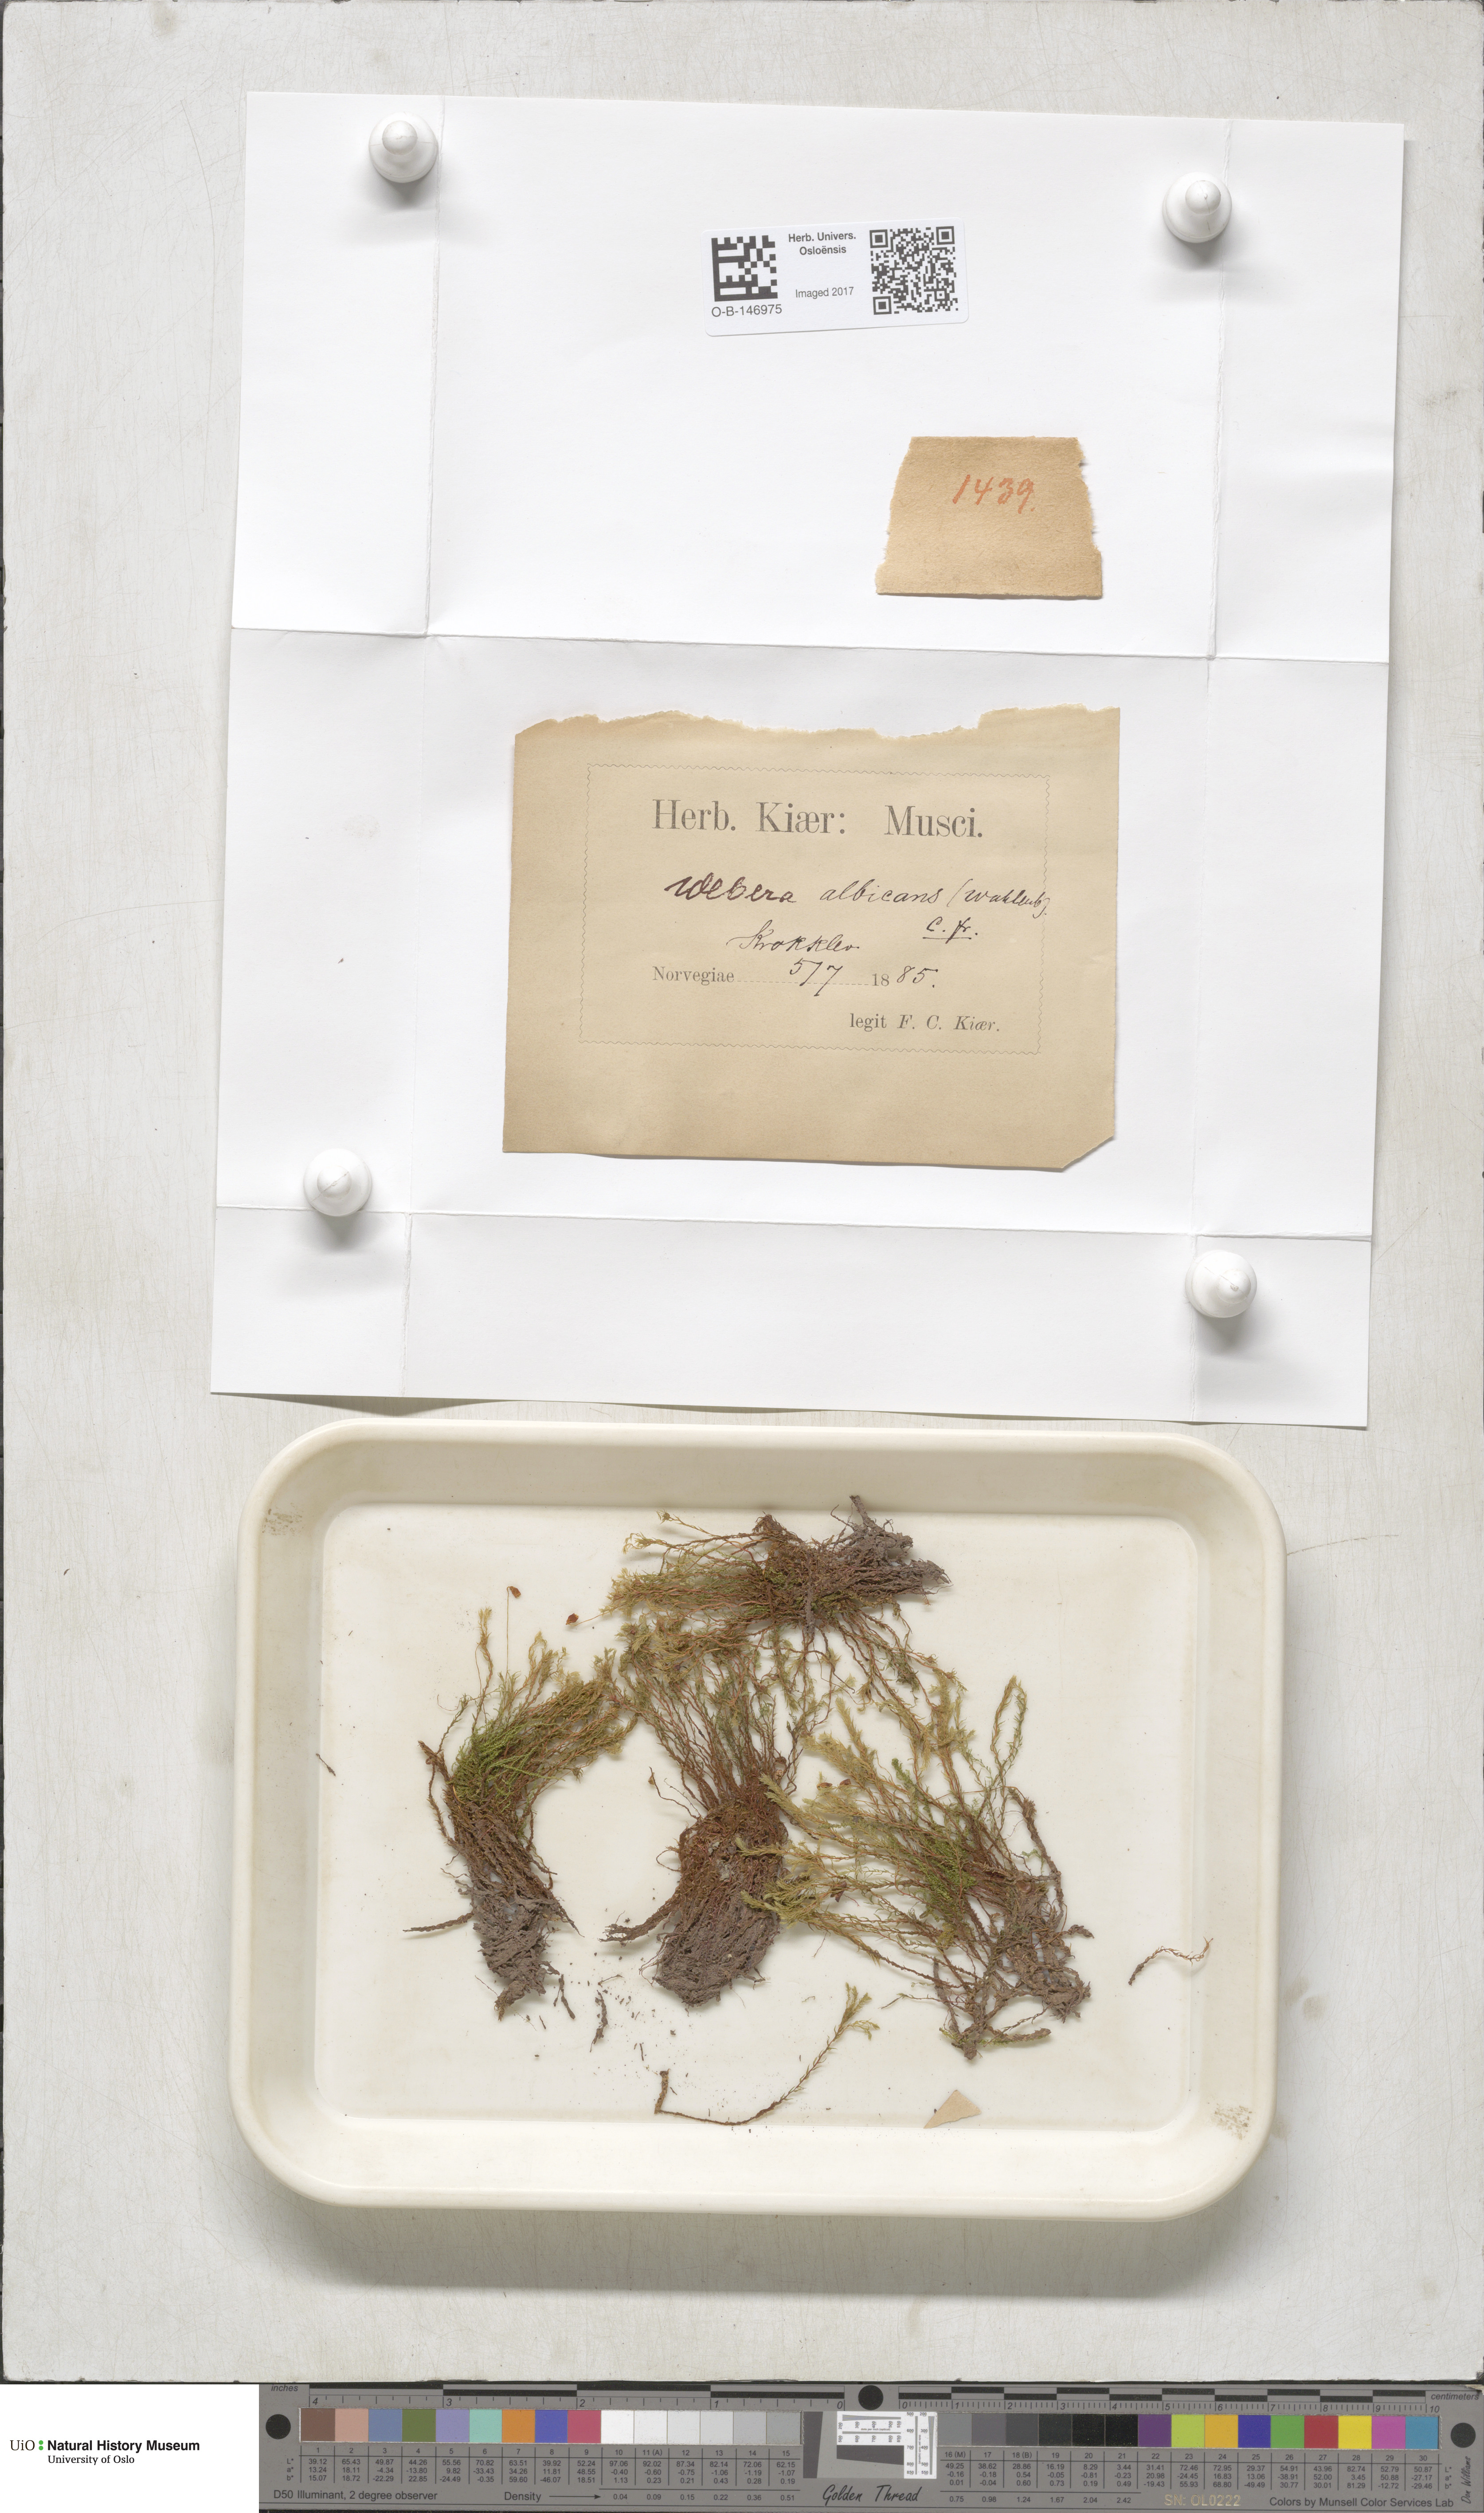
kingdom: Plantae
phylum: Bryophyta
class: Bryopsida
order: Bryales
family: Mniaceae
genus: Pohlia
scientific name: Pohlia wahlenbergii
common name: Wahlenberg's nodding moss
